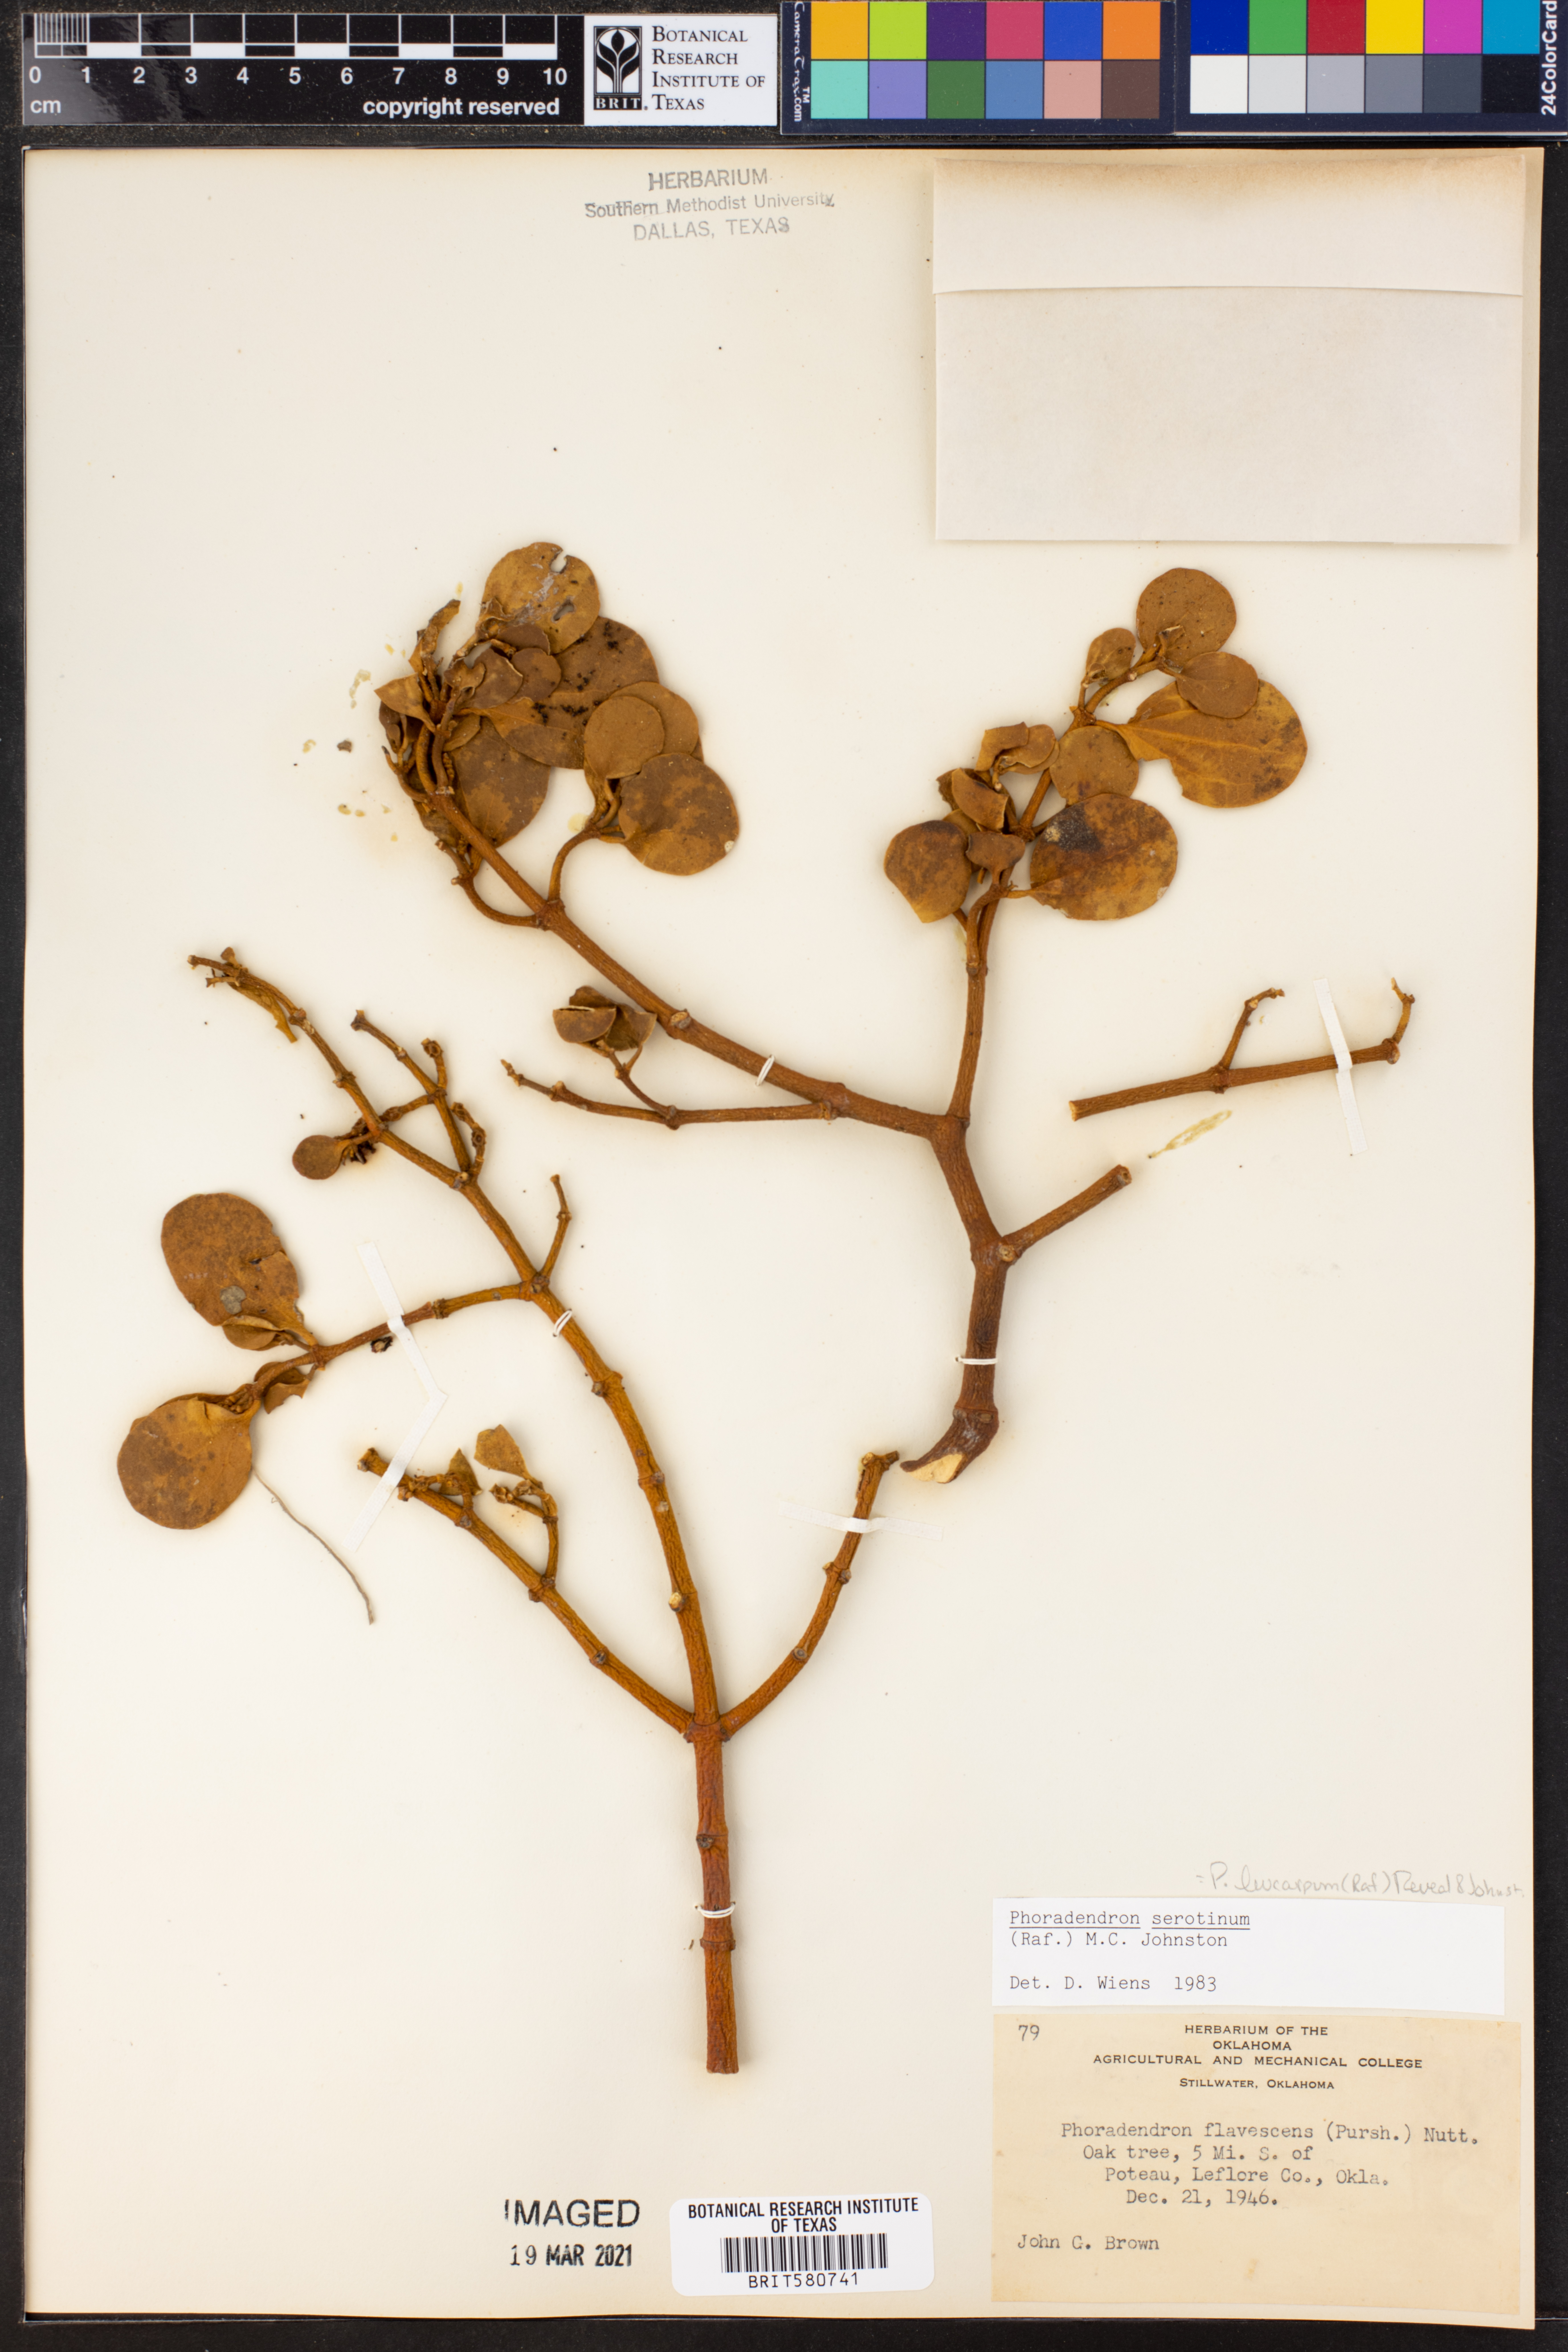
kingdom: Plantae
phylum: Tracheophyta
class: Magnoliopsida
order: Santalales
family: Viscaceae
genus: Phoradendron
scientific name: Phoradendron leucarpum
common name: Pacific mistletoe
